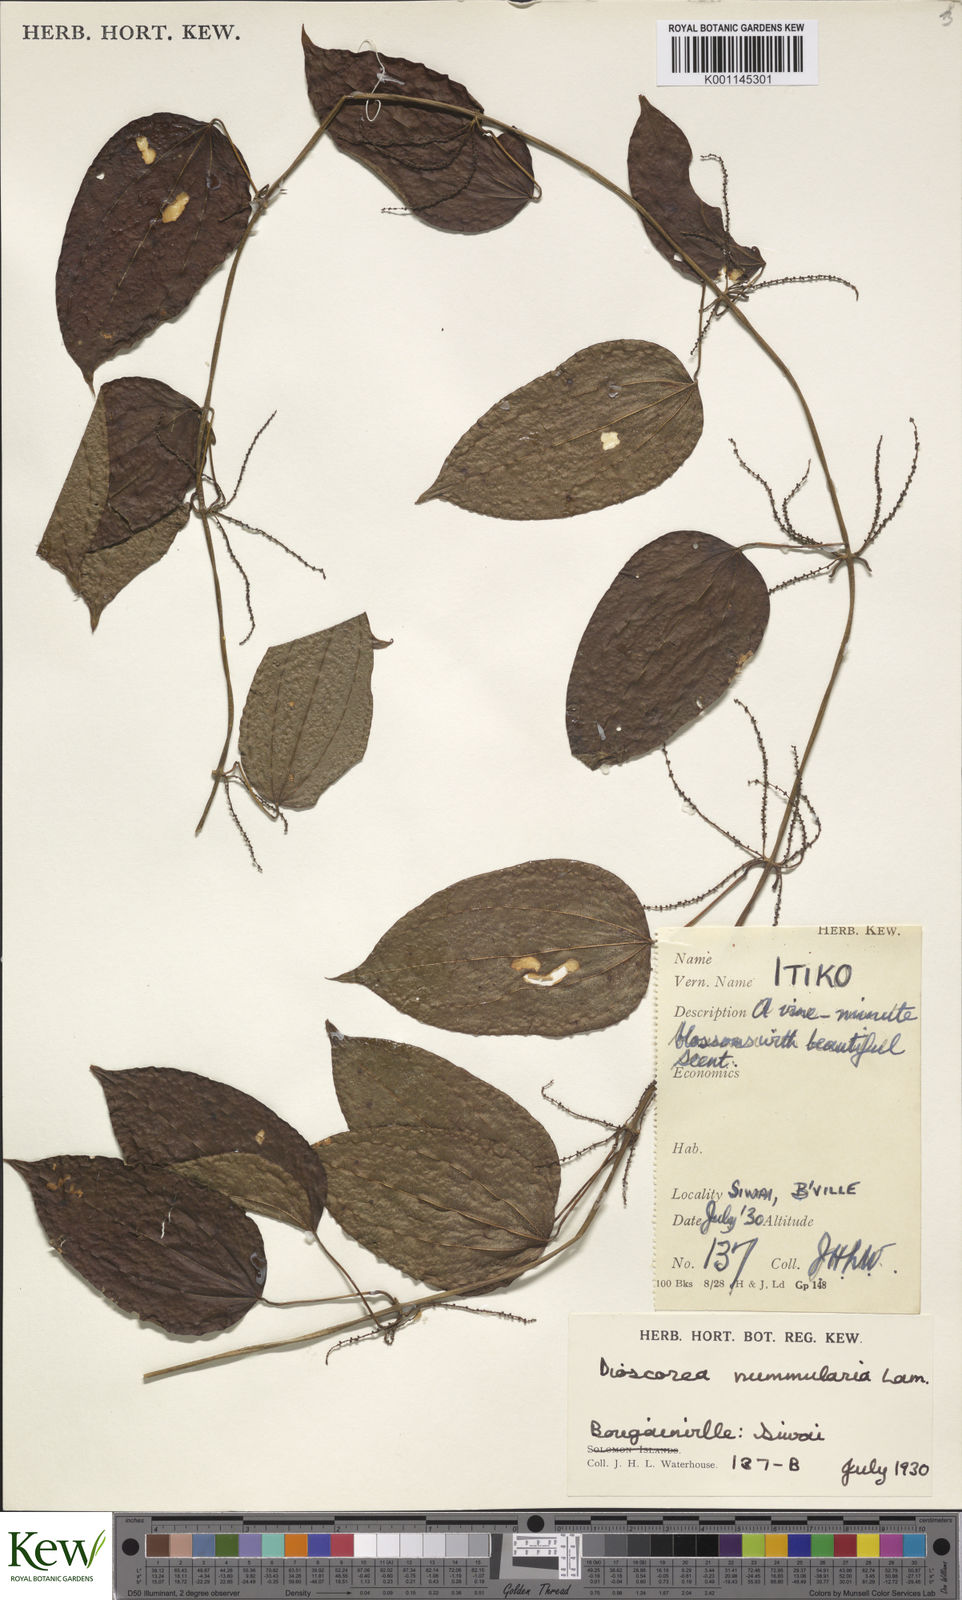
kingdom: Plantae
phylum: Tracheophyta
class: Liliopsida
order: Dioscoreales
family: Dioscoreaceae
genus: Dioscorea
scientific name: Dioscorea nummularia
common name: Pacific yam
